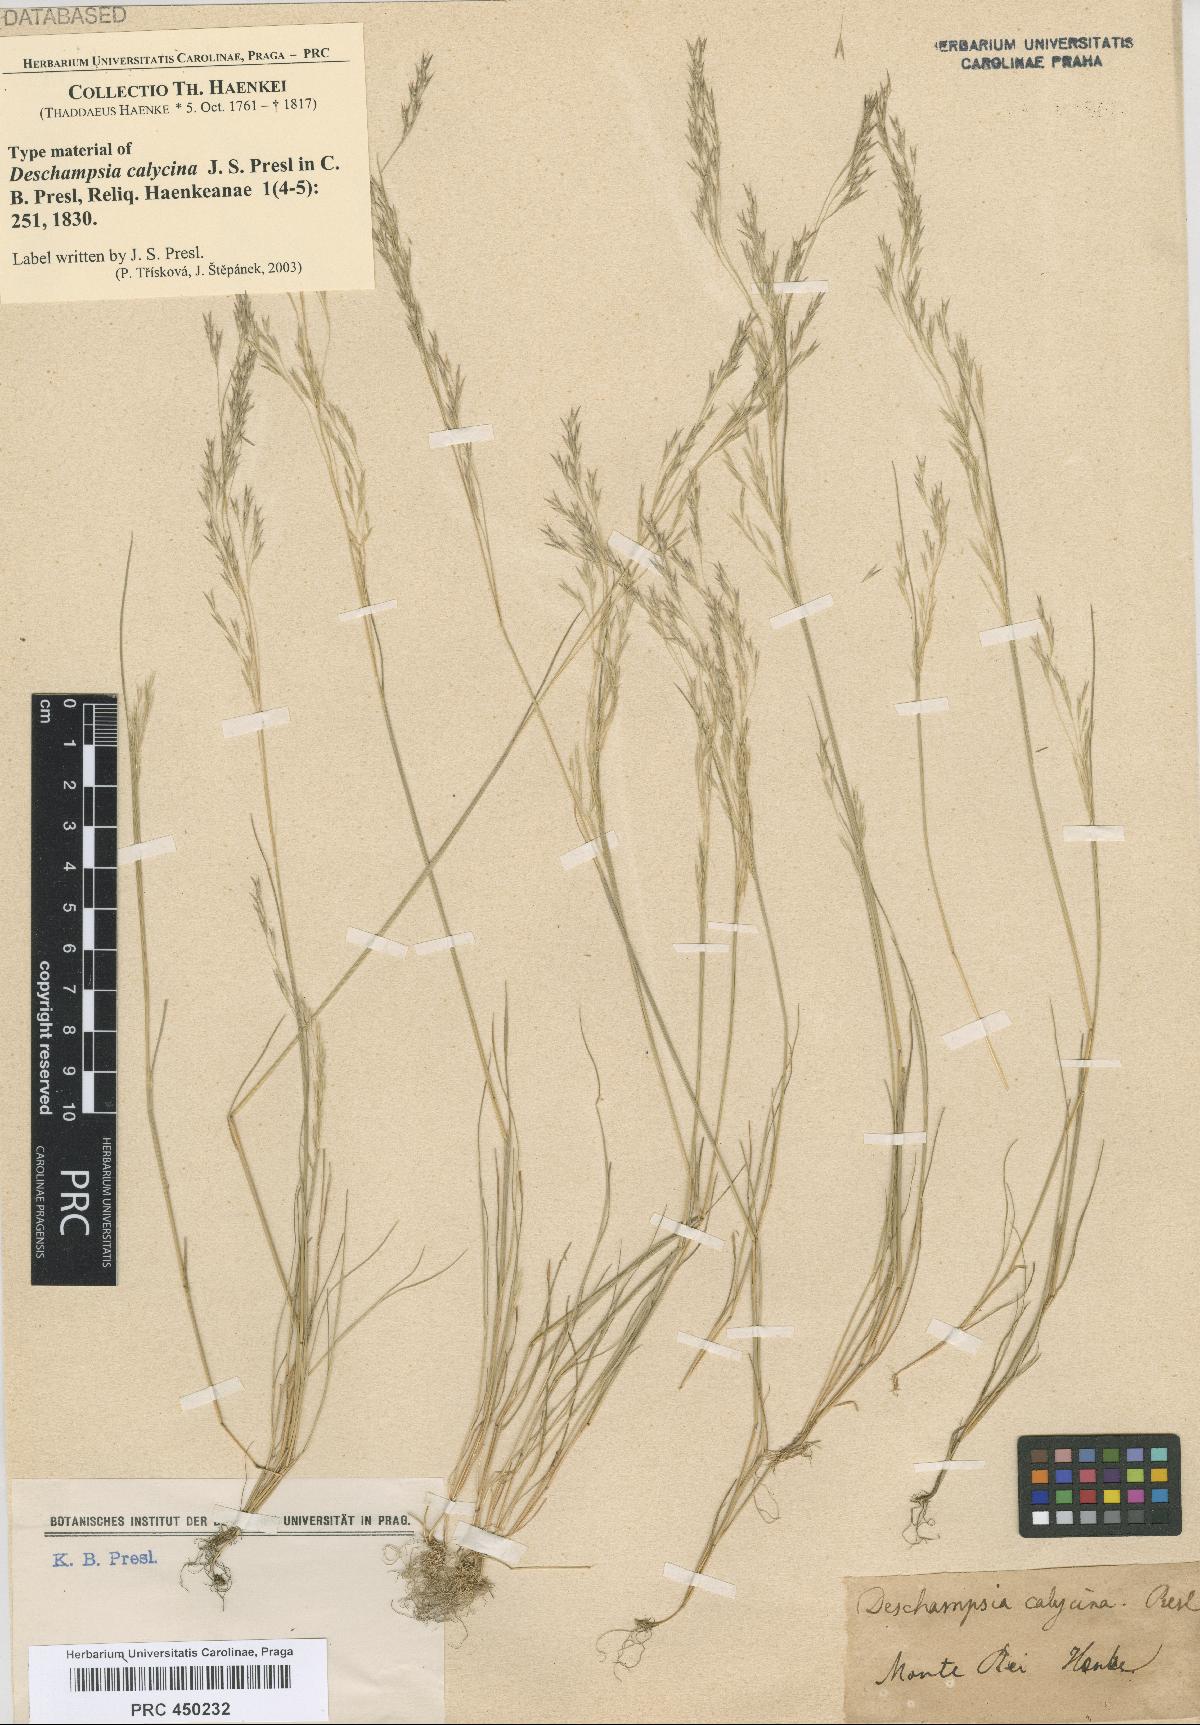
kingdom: Plantae
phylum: Tracheophyta
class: Liliopsida
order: Poales
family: Poaceae
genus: Deschampsia
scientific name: Deschampsia danthonioides
